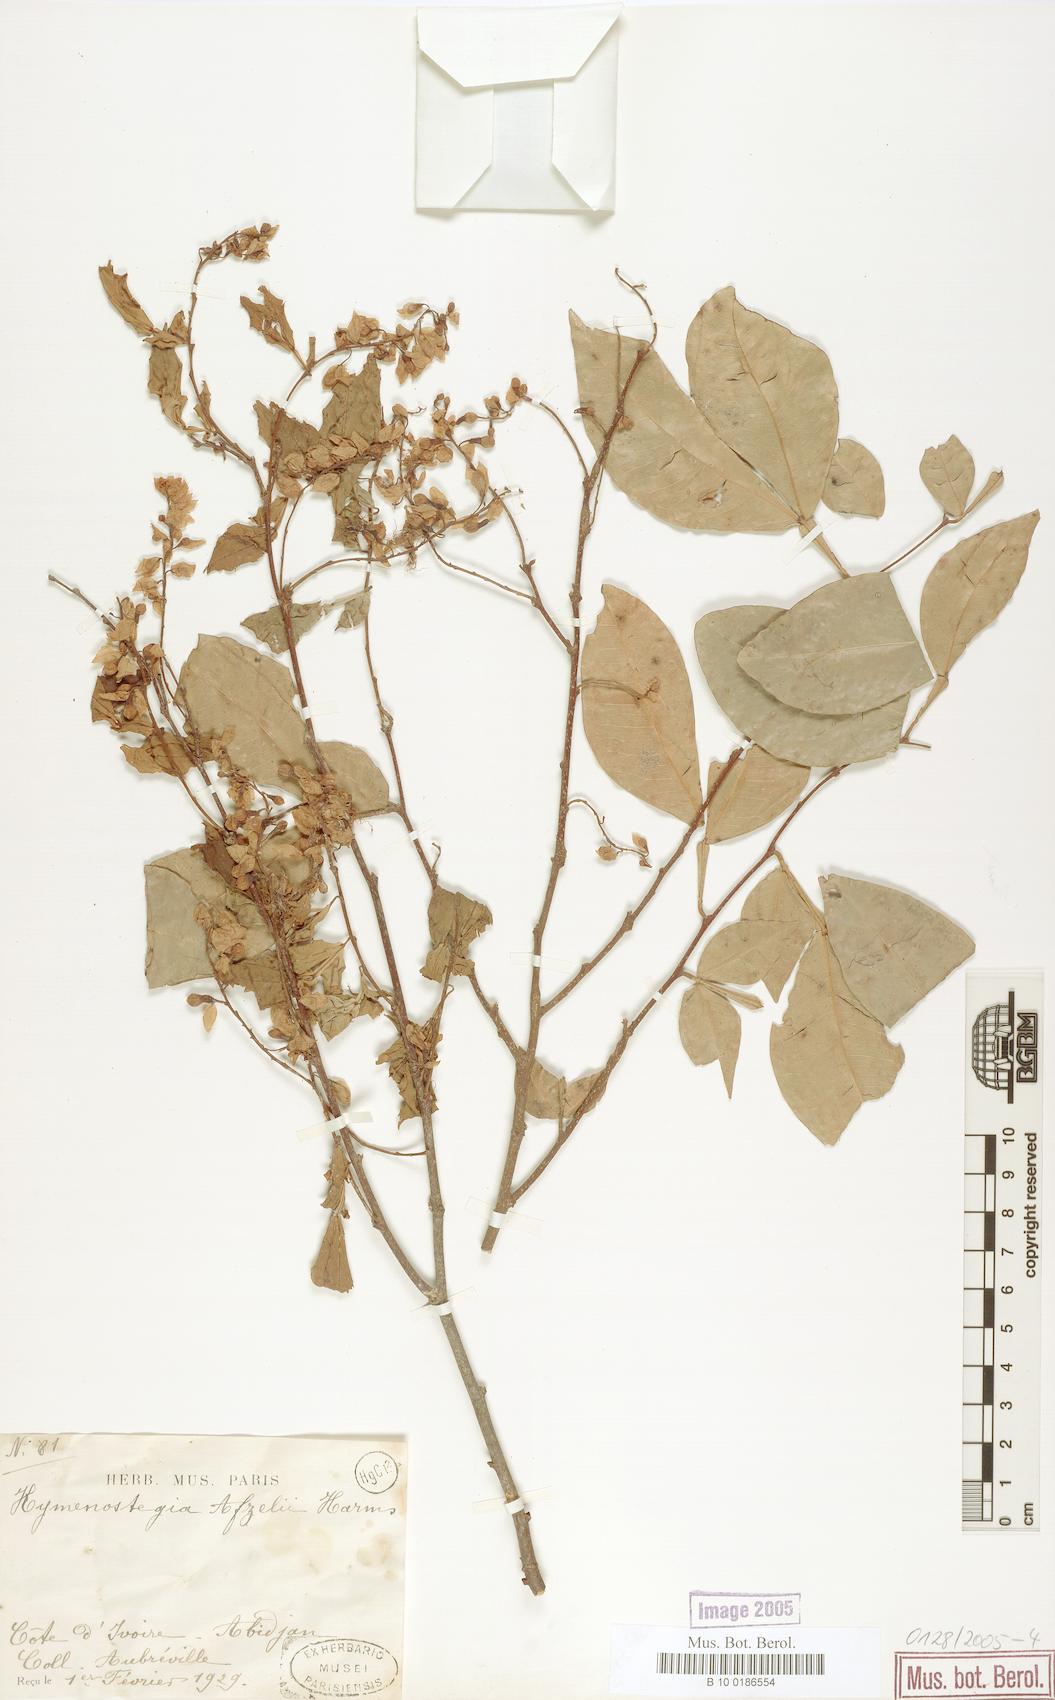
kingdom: Plantae
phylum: Tracheophyta
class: Magnoliopsida
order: Fabales
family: Fabaceae
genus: Annea
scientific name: Annea afzelii
